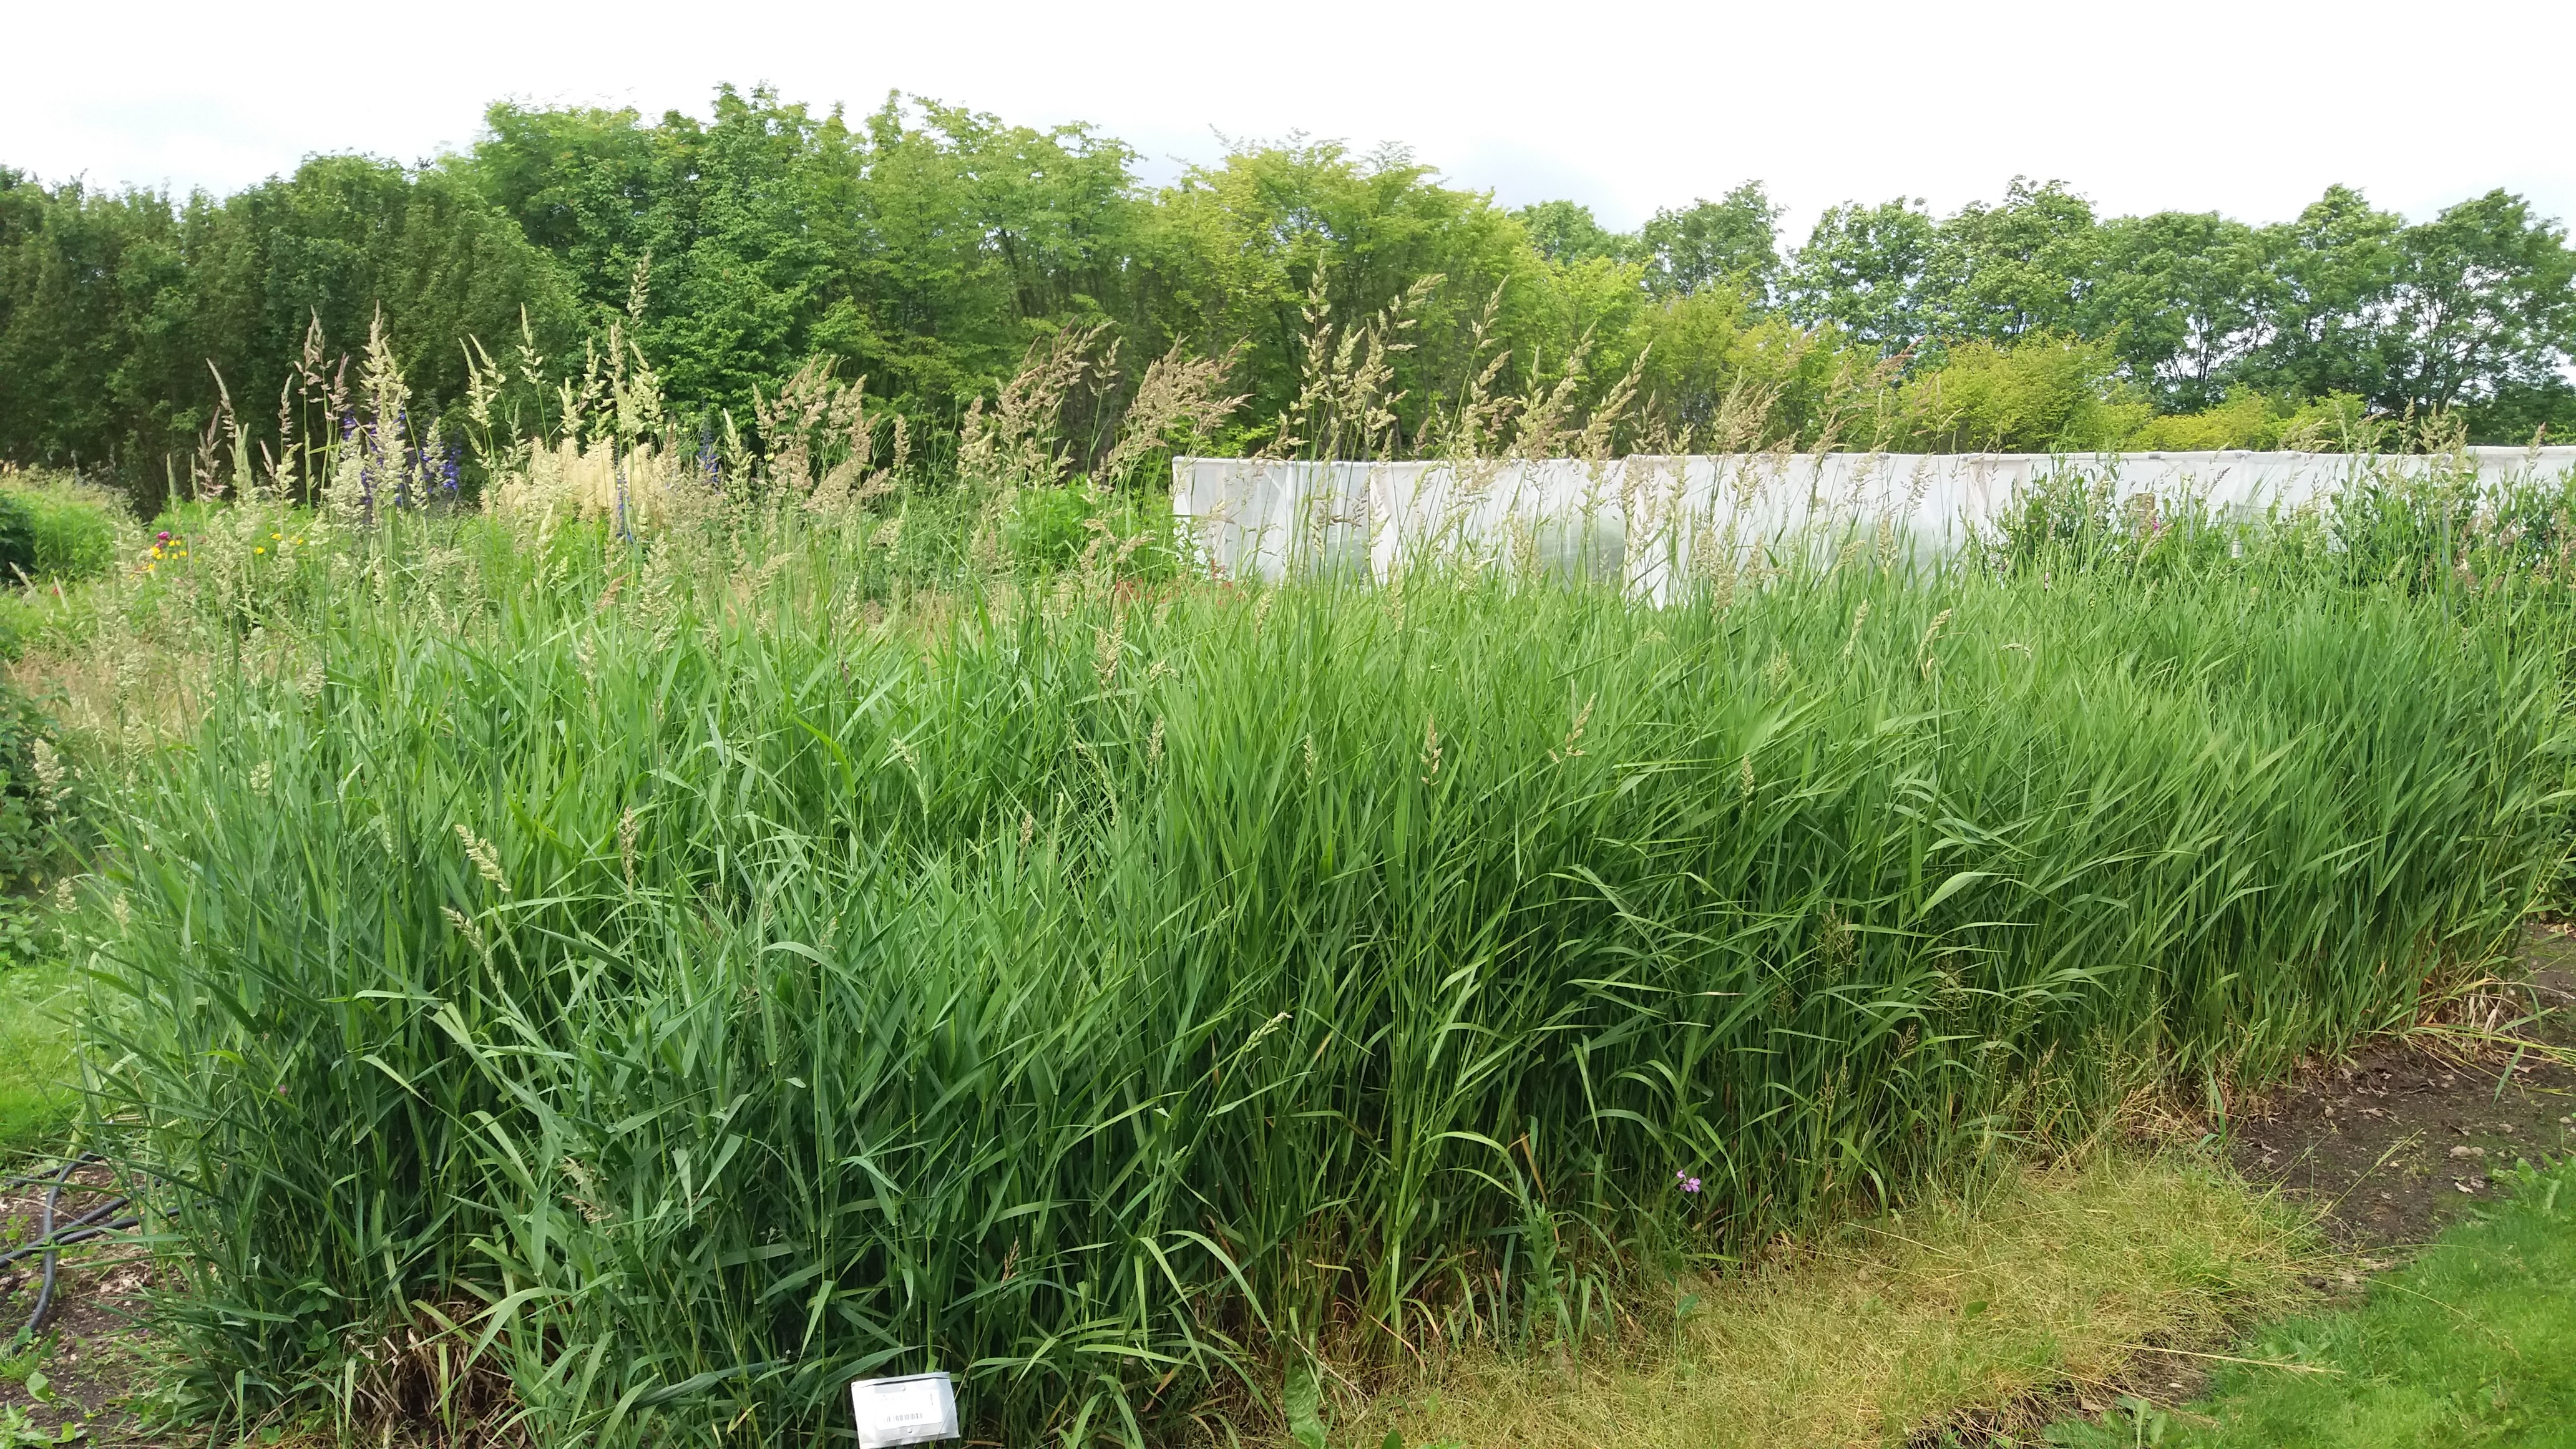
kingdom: Plantae
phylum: Tracheophyta
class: Liliopsida
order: Poales
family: Poaceae
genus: Phalaris
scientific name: Phalaris arundinacea
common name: Reed canary-grass
